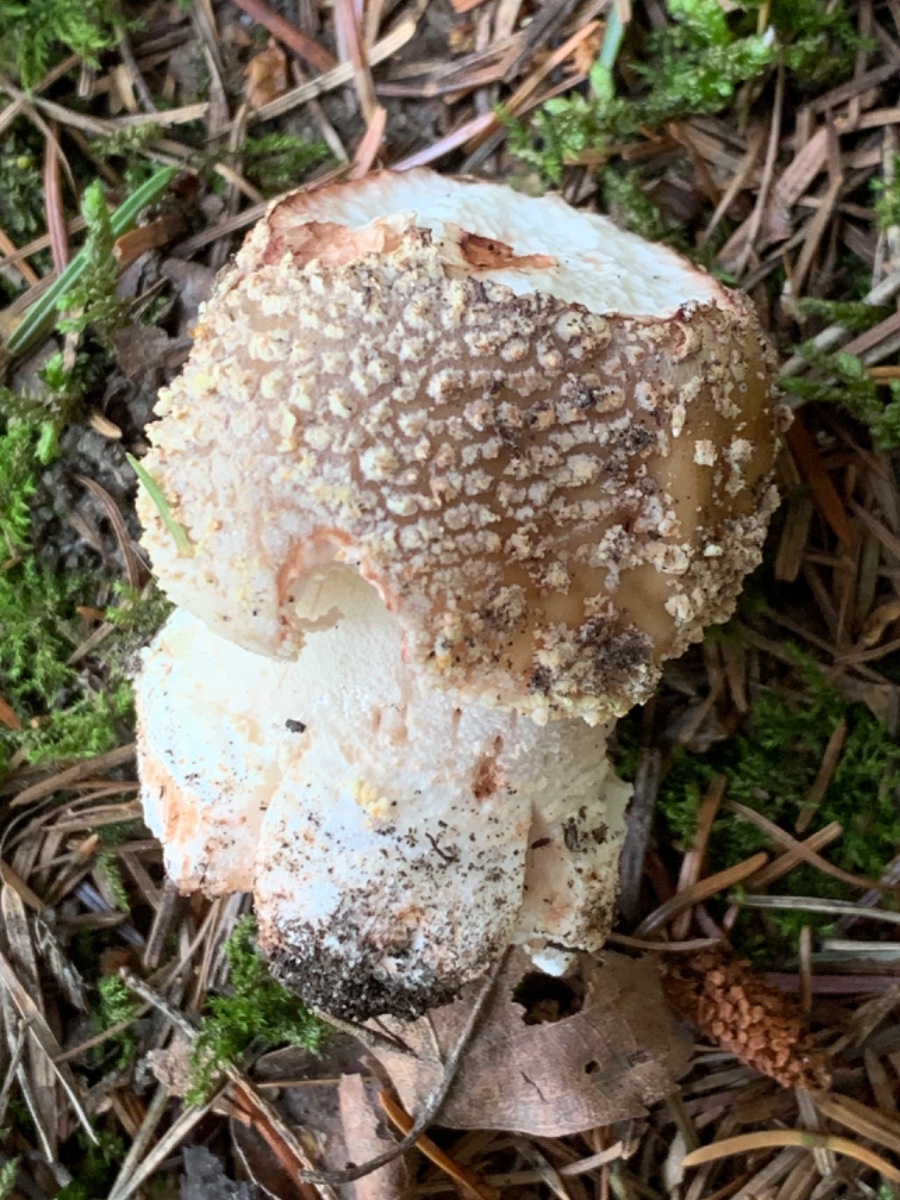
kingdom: Fungi
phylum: Basidiomycota
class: Agaricomycetes
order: Agaricales
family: Amanitaceae
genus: Amanita
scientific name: Amanita rubescens
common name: rødmende fluesvamp
